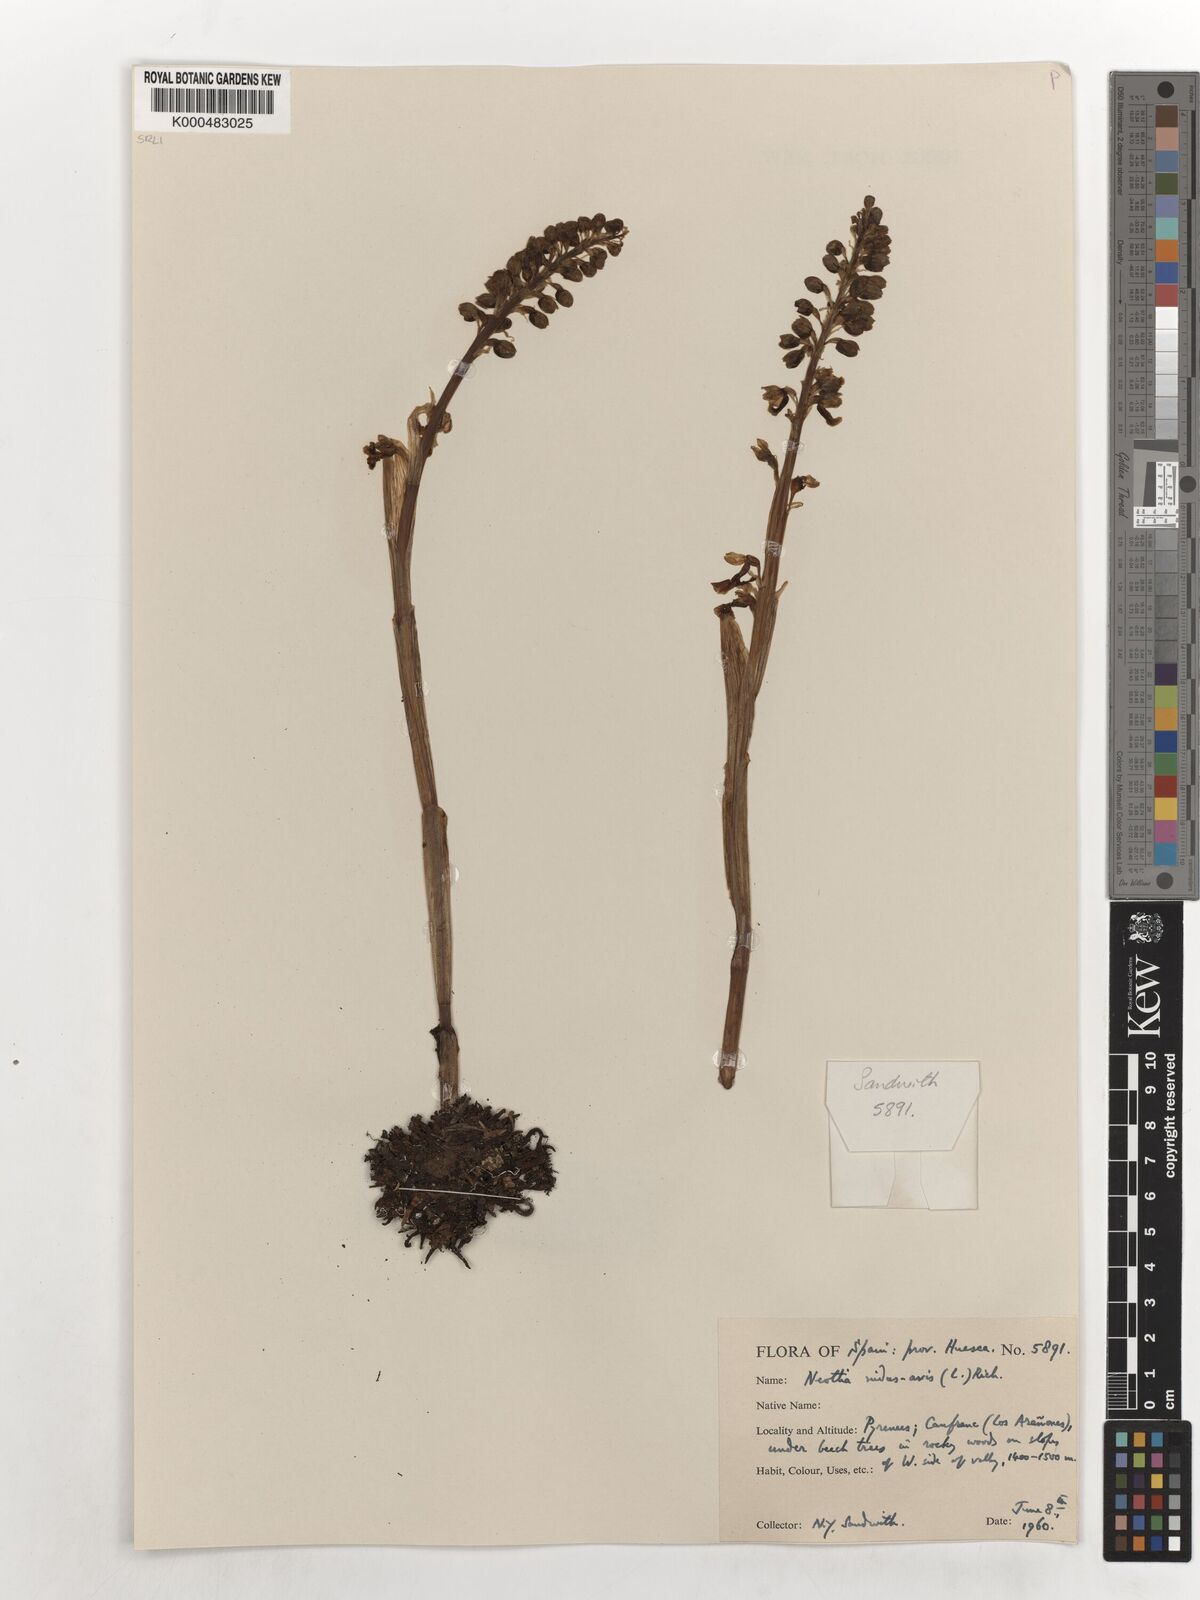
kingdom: Plantae
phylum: Tracheophyta
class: Liliopsida
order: Asparagales
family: Orchidaceae
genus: Neottia
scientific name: Neottia nidus-avis
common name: Bird's-nest orchid
